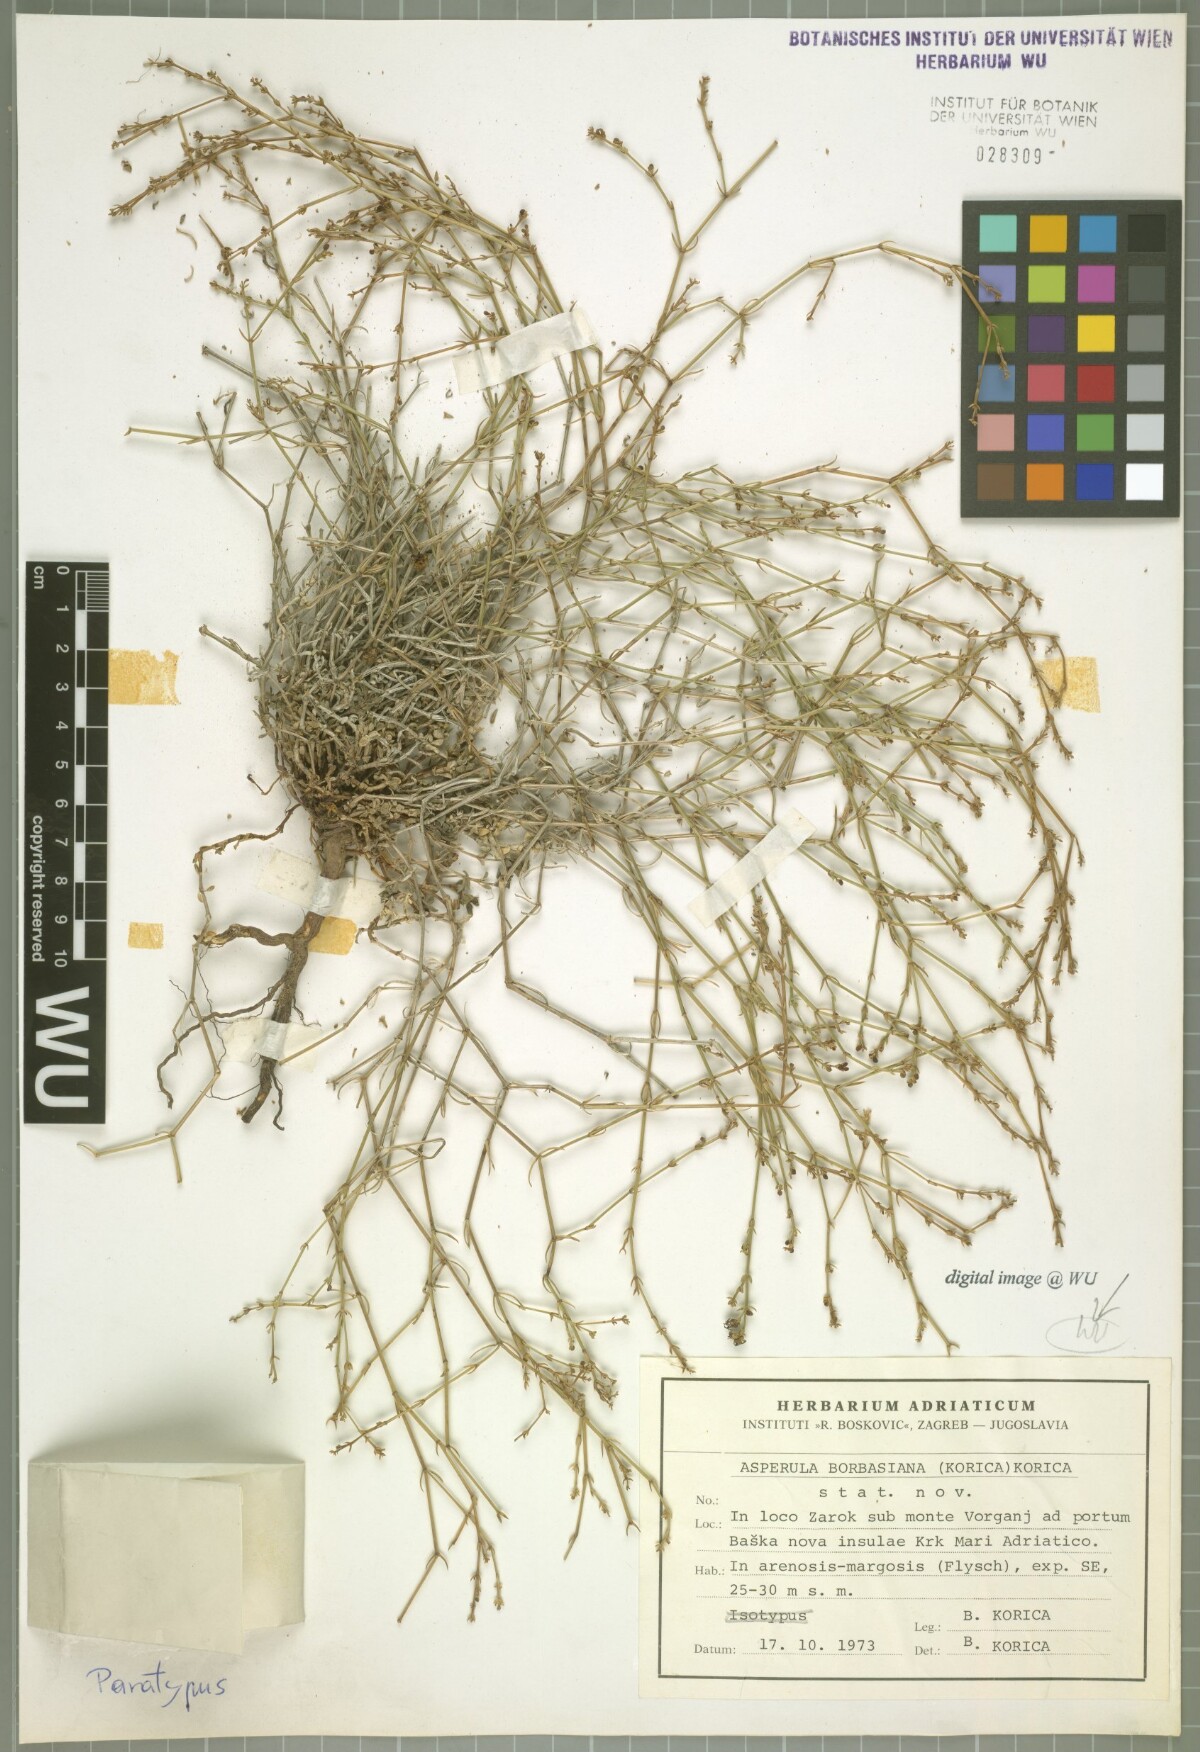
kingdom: Plantae
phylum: Tracheophyta
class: Magnoliopsida
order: Gentianales
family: Rubiaceae
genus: Cynanchica
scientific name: Cynanchica borbasiana
